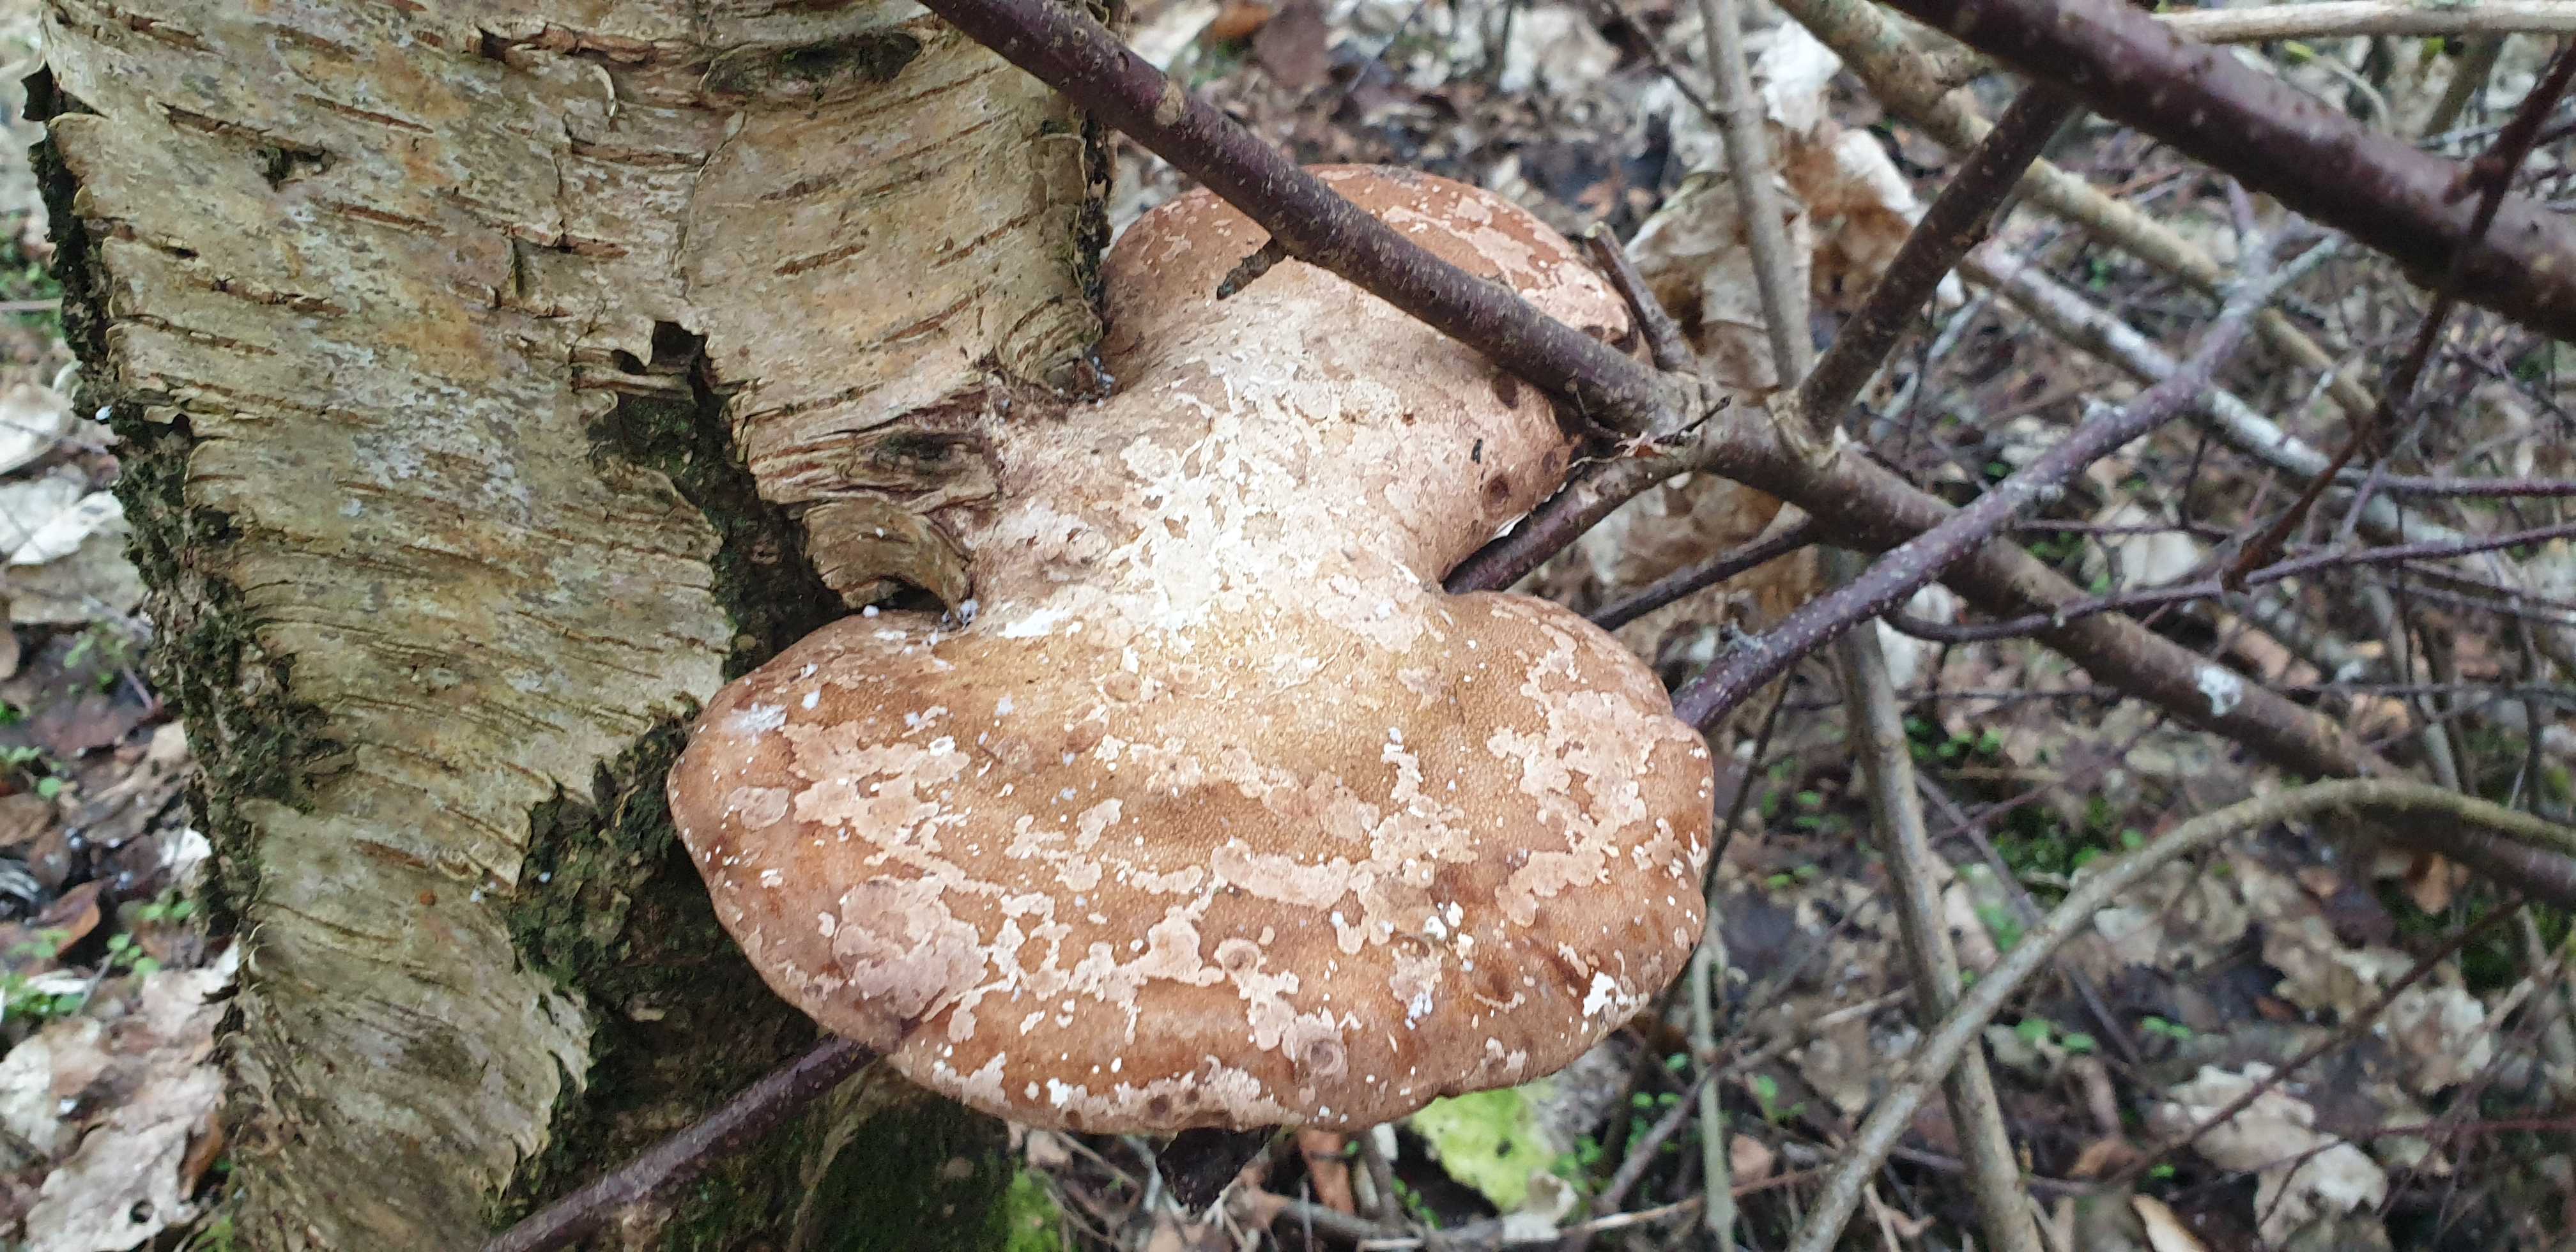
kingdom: Fungi
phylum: Basidiomycota
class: Agaricomycetes
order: Polyporales
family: Fomitopsidaceae
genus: Fomitopsis
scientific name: Fomitopsis betulina
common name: birkeporesvamp
